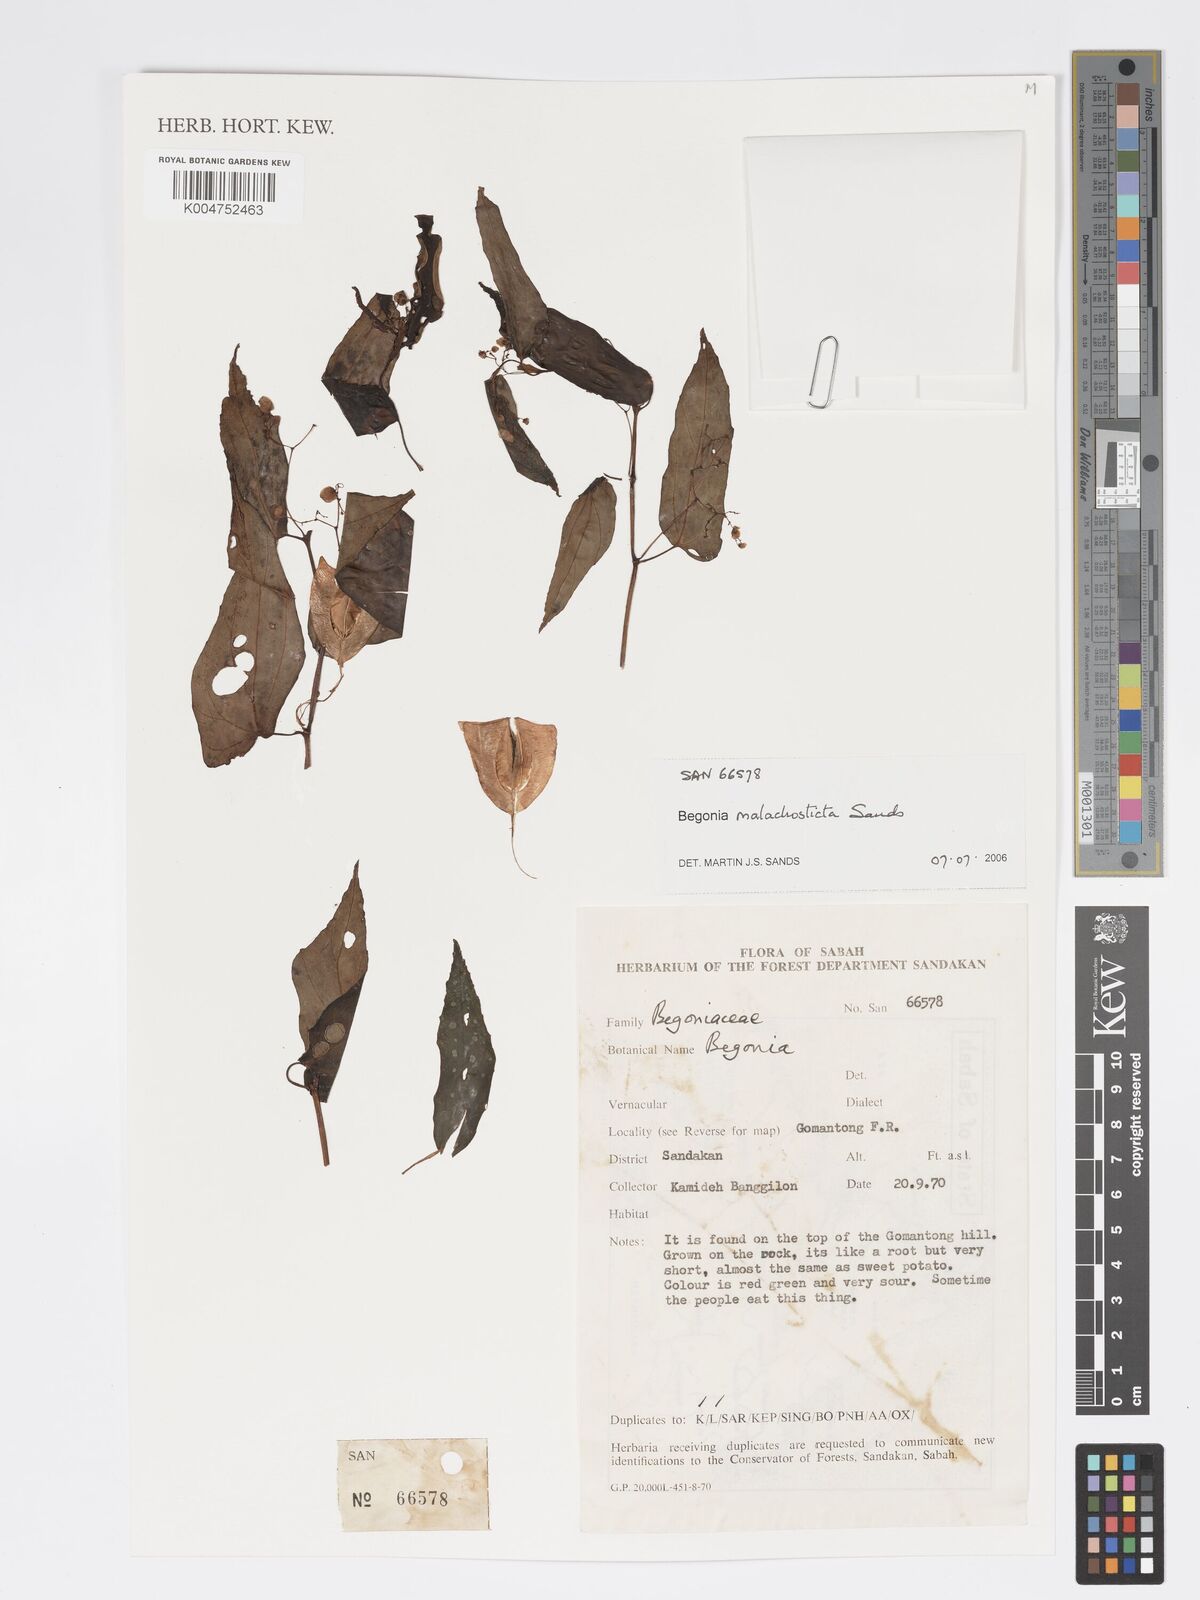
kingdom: Plantae
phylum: Tracheophyta
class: Magnoliopsida
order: Cucurbitales
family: Begoniaceae
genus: Begonia
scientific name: Begonia malachosticta
